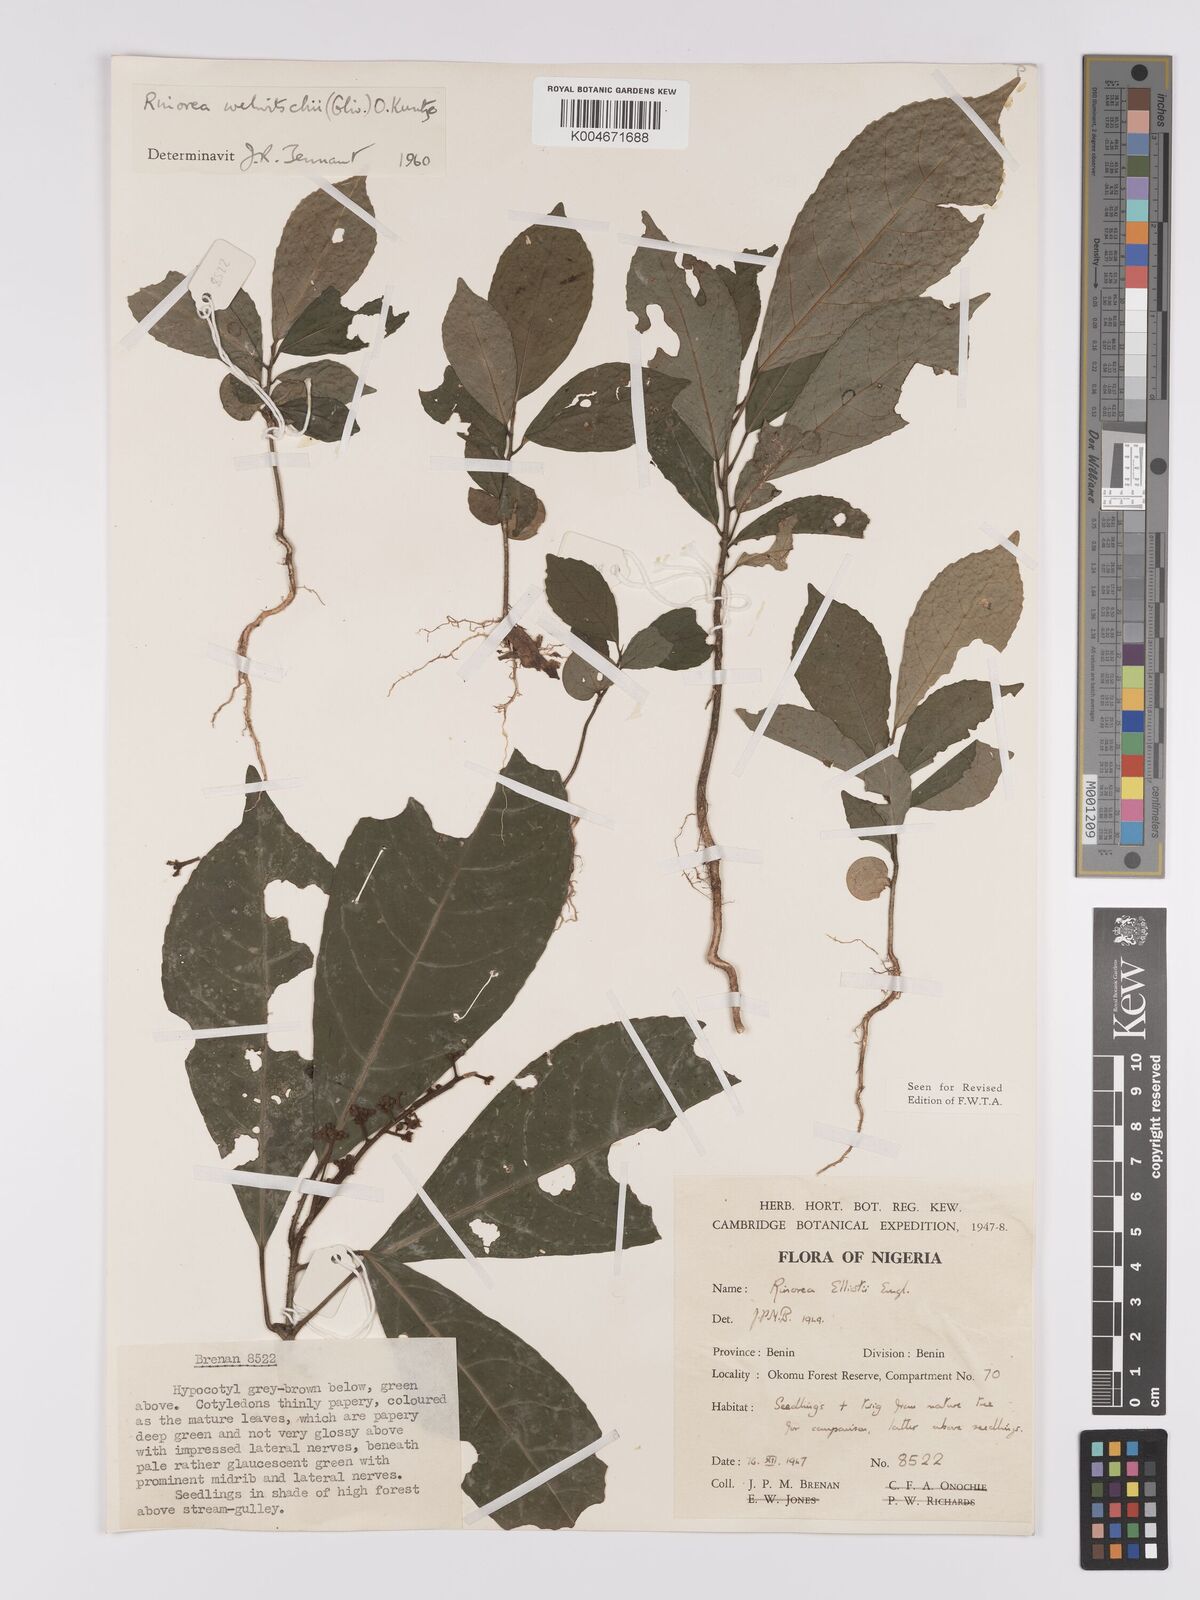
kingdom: Plantae
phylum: Tracheophyta
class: Magnoliopsida
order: Malpighiales
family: Violaceae
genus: Rinorea
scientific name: Rinorea welwitschii
